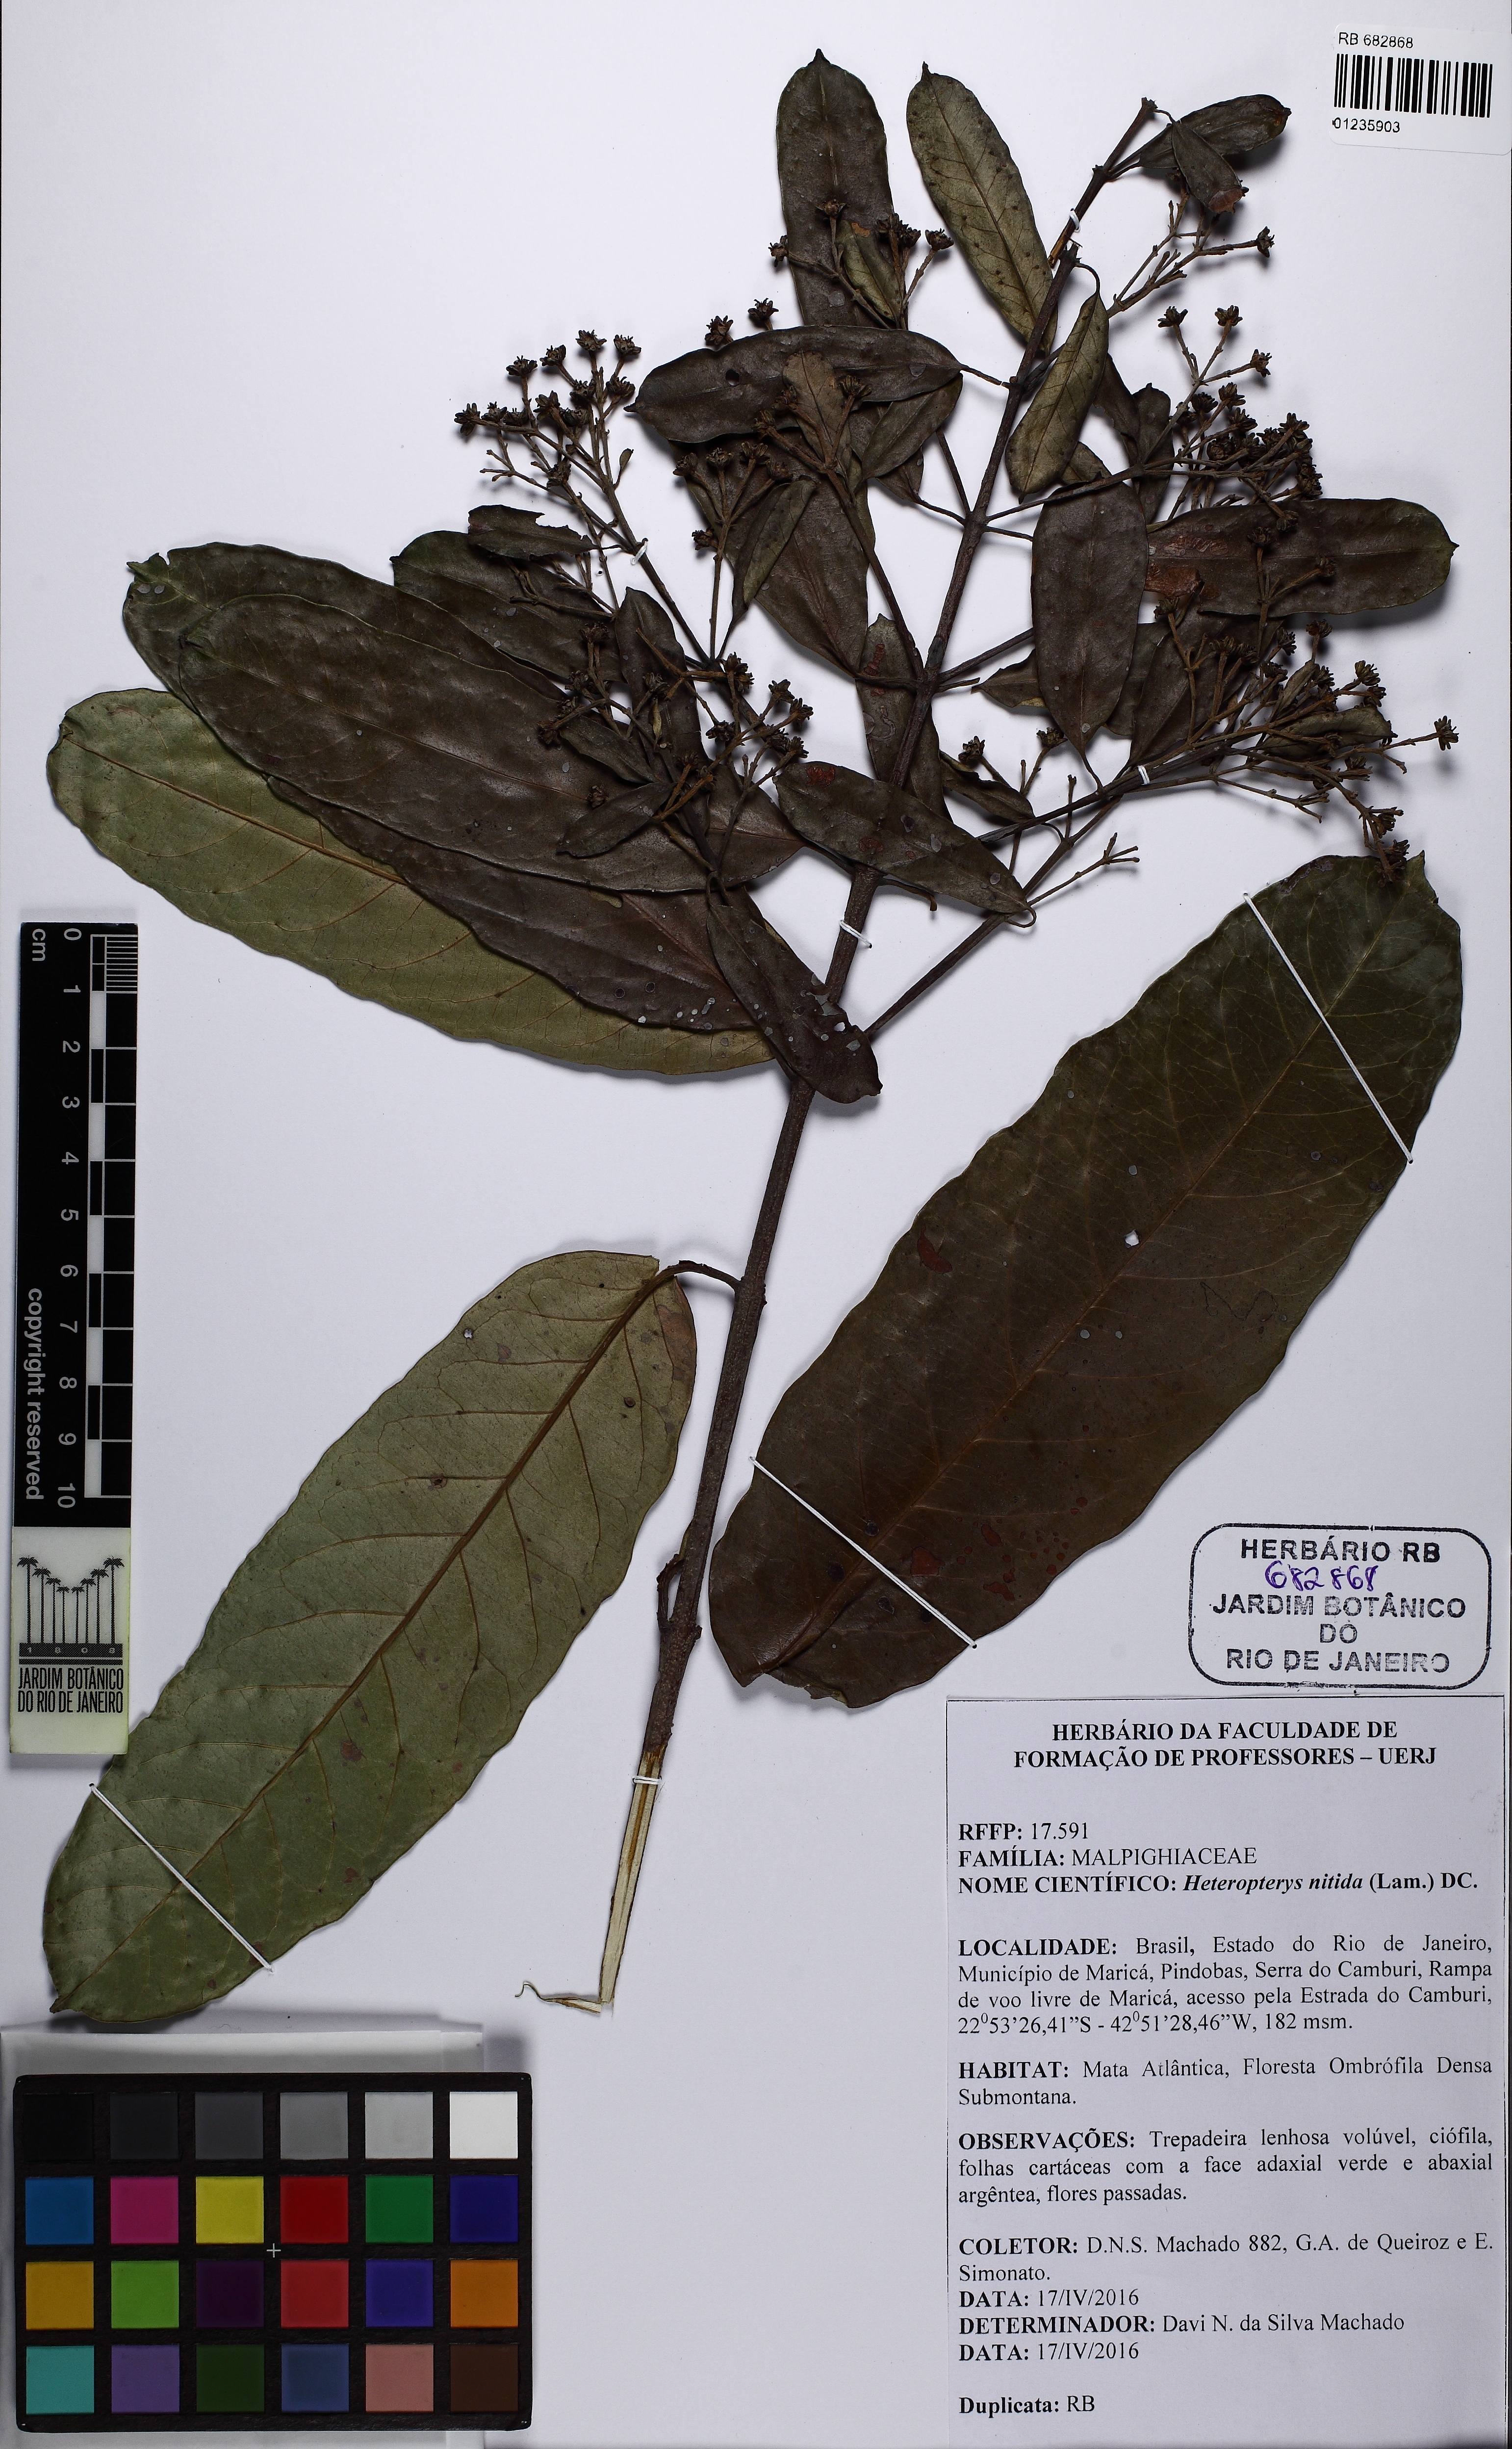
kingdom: Plantae
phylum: Tracheophyta
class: Magnoliopsida
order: Malpighiales
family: Malpighiaceae
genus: Heteropterys
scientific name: Heteropterys nitida
